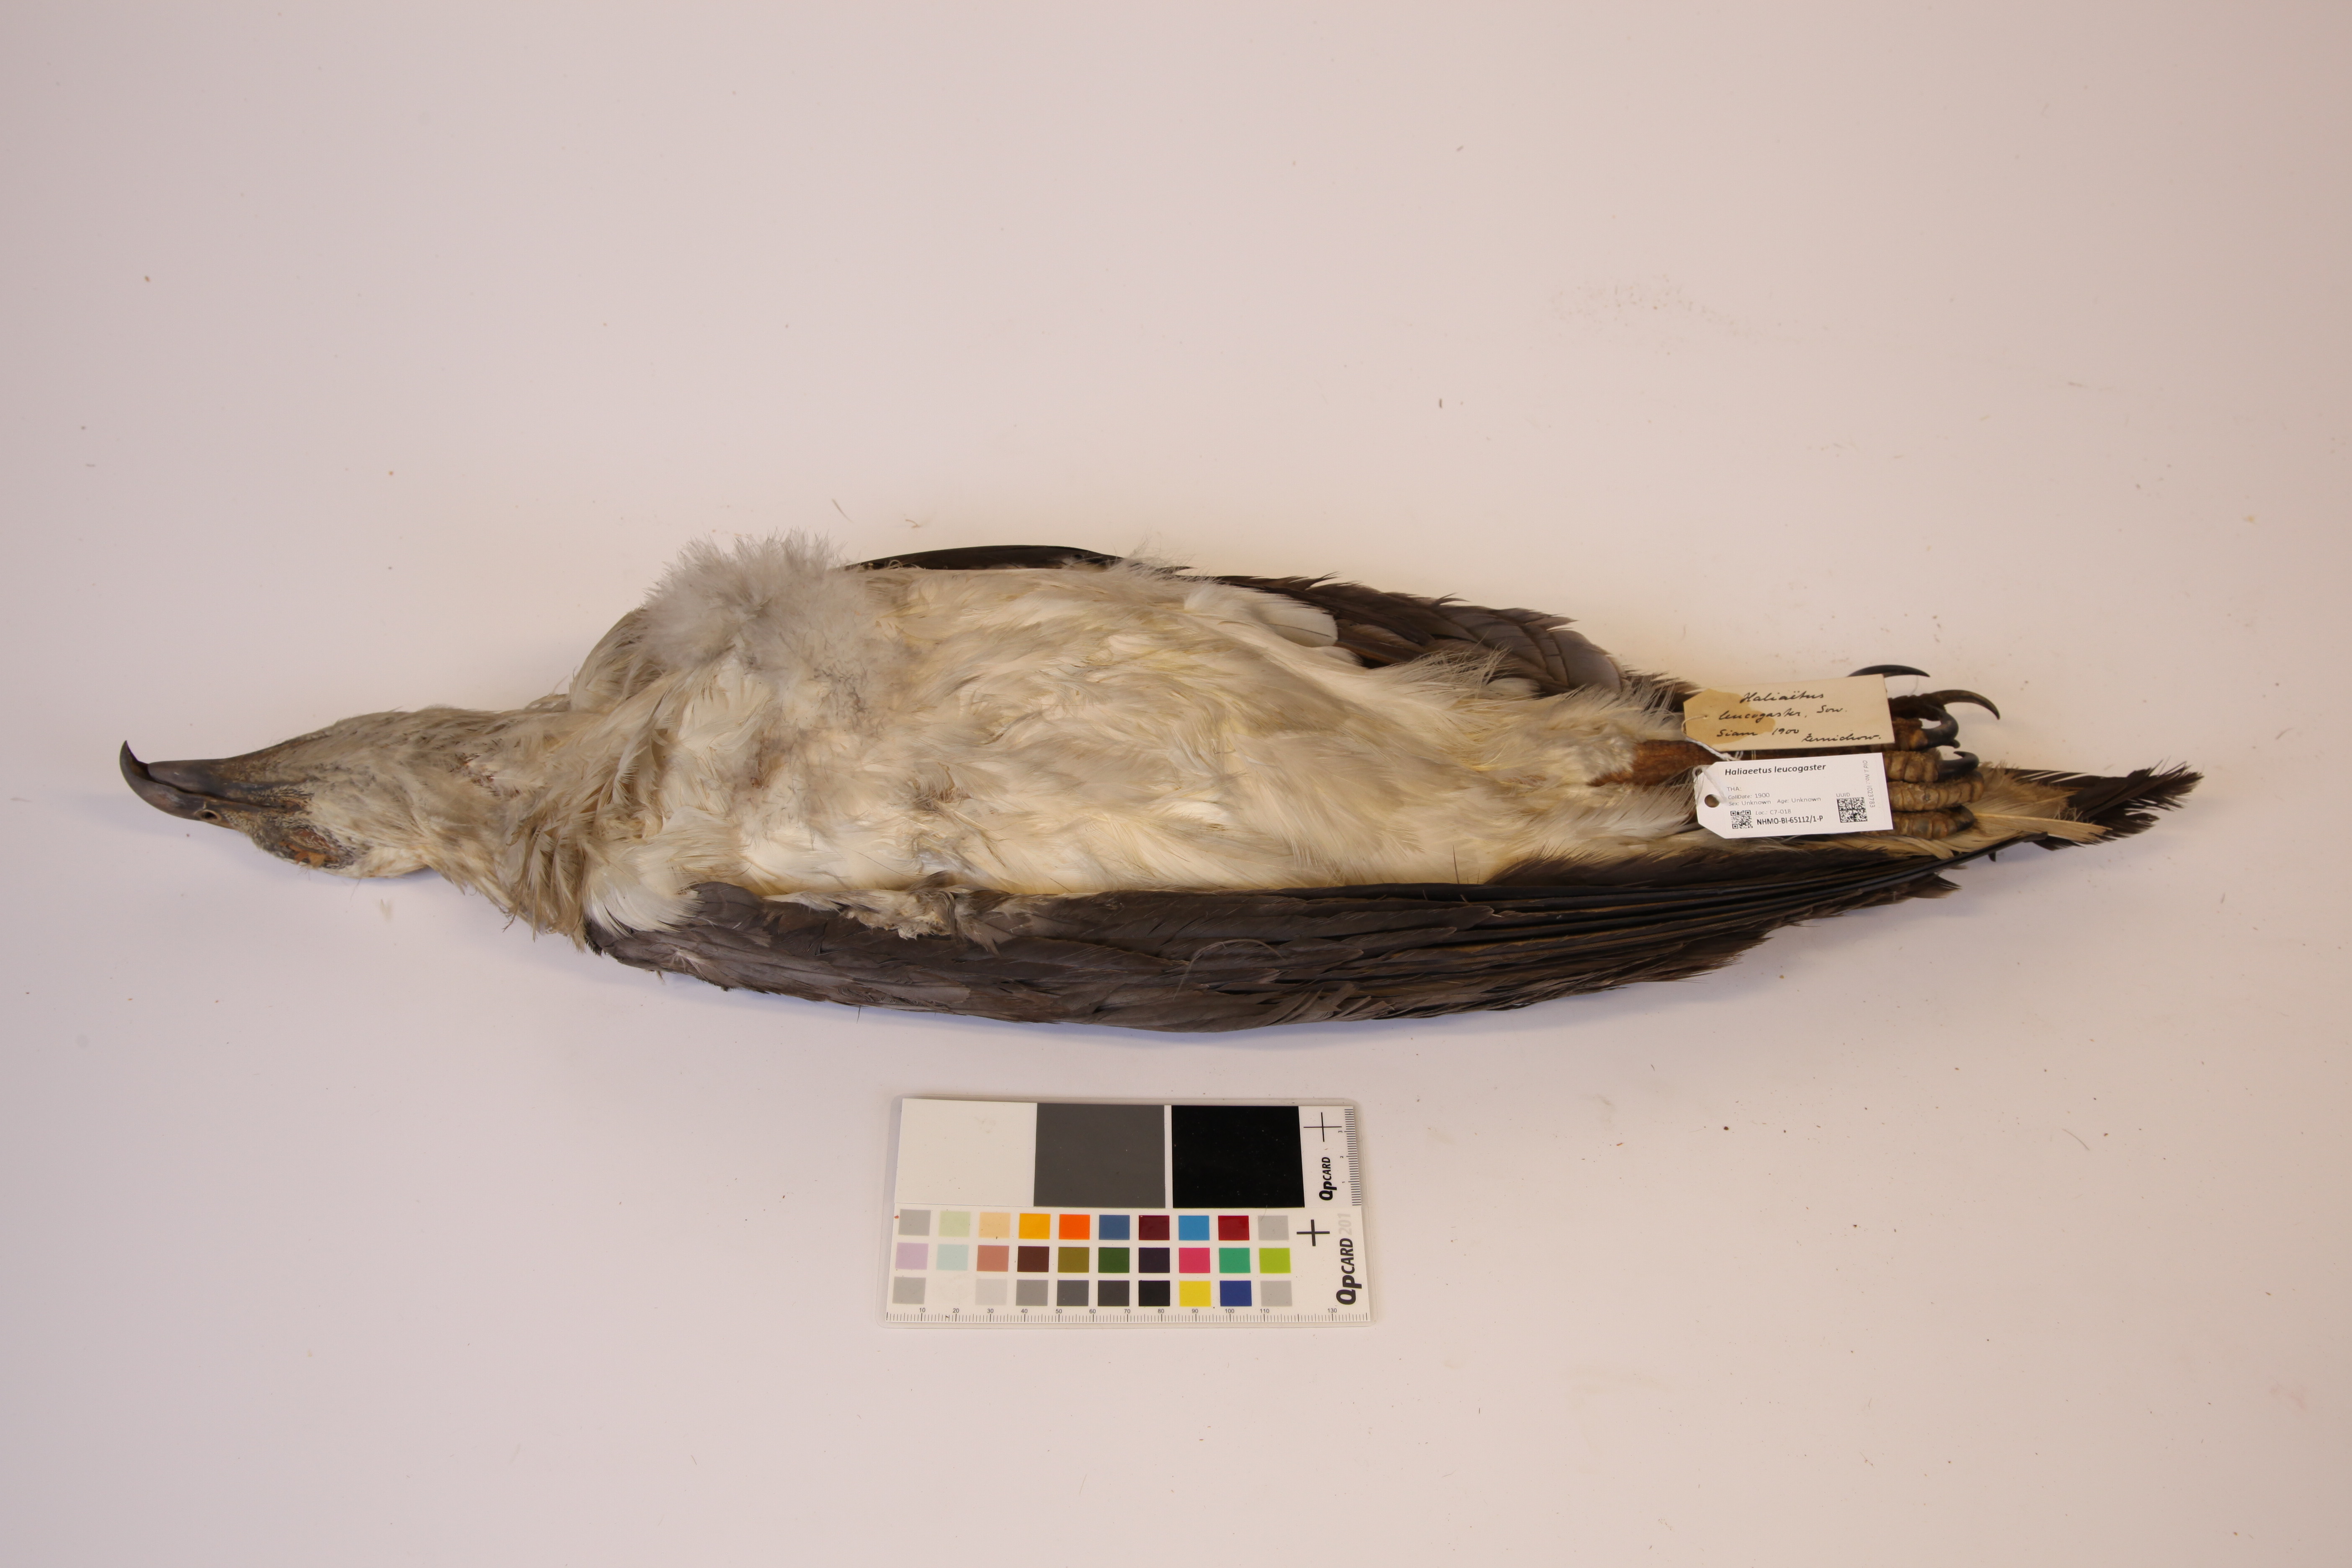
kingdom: Animalia
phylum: Chordata
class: Aves
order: Accipitriformes
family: Accipitridae
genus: Haliaeetus
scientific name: Haliaeetus leucogaster
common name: White-bellied sea eagle
